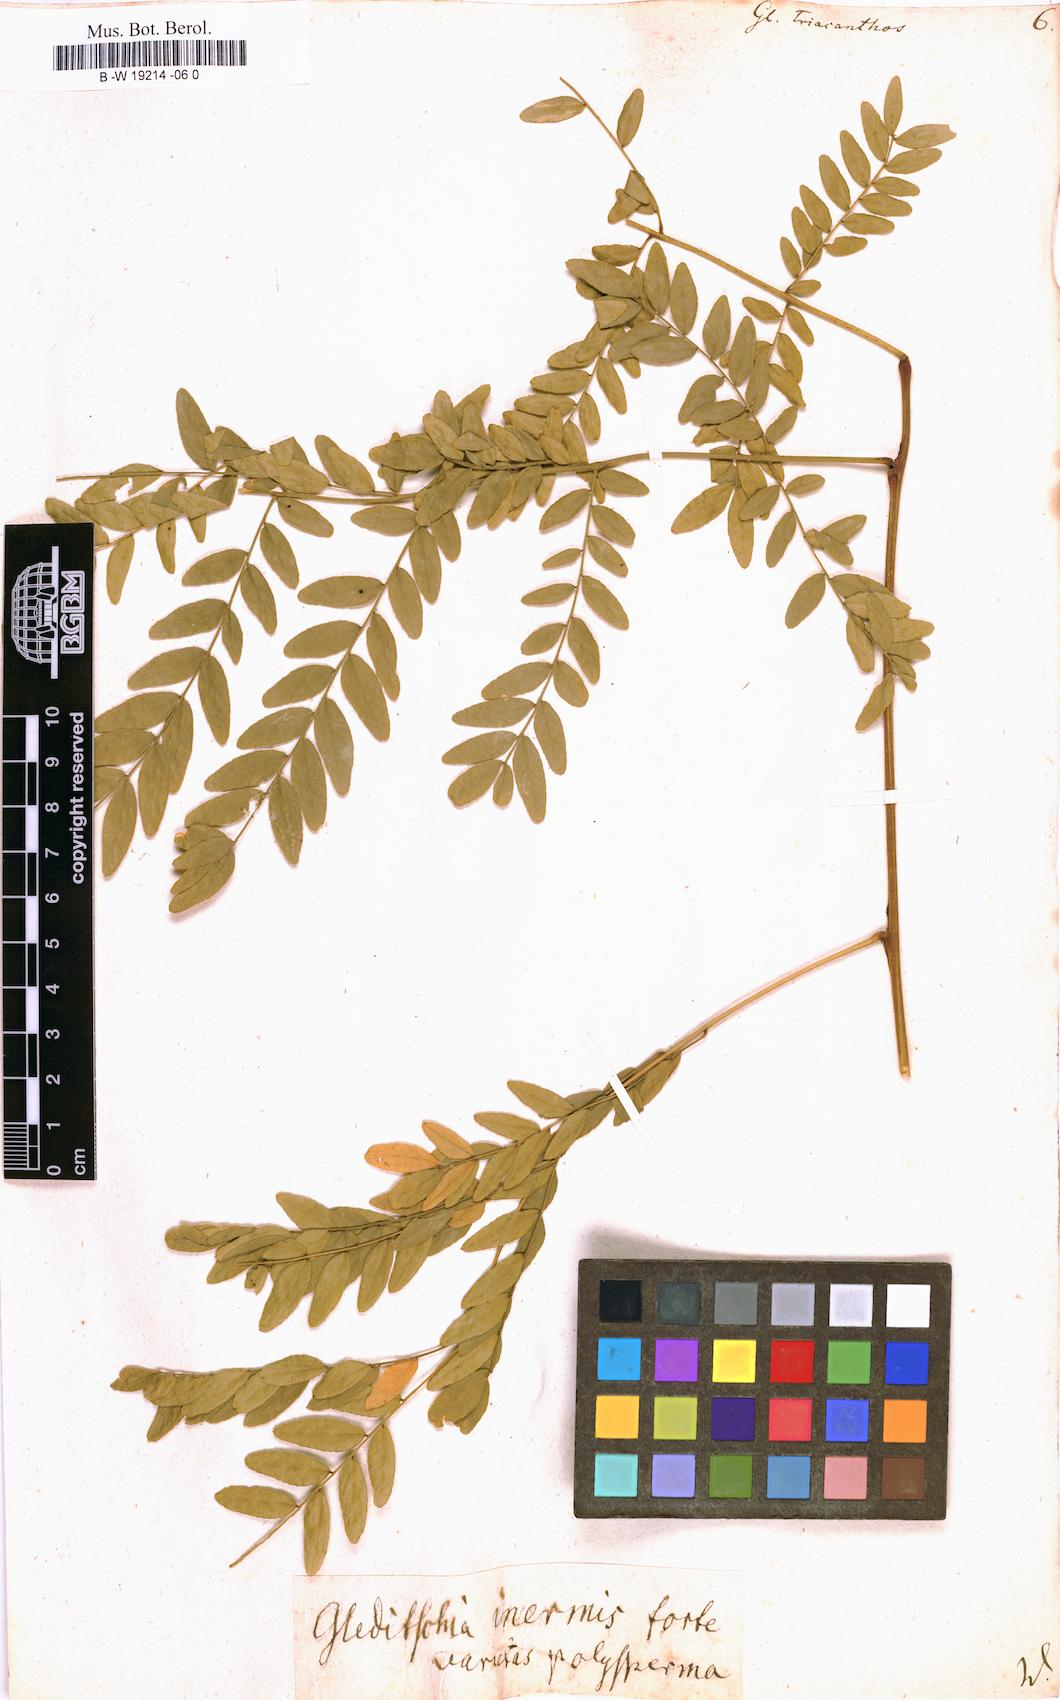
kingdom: Plantae
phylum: Tracheophyta
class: Magnoliopsida
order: Fabales
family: Fabaceae
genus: Gleditsia
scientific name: Gleditsia triacanthos
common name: Common honeylocust
